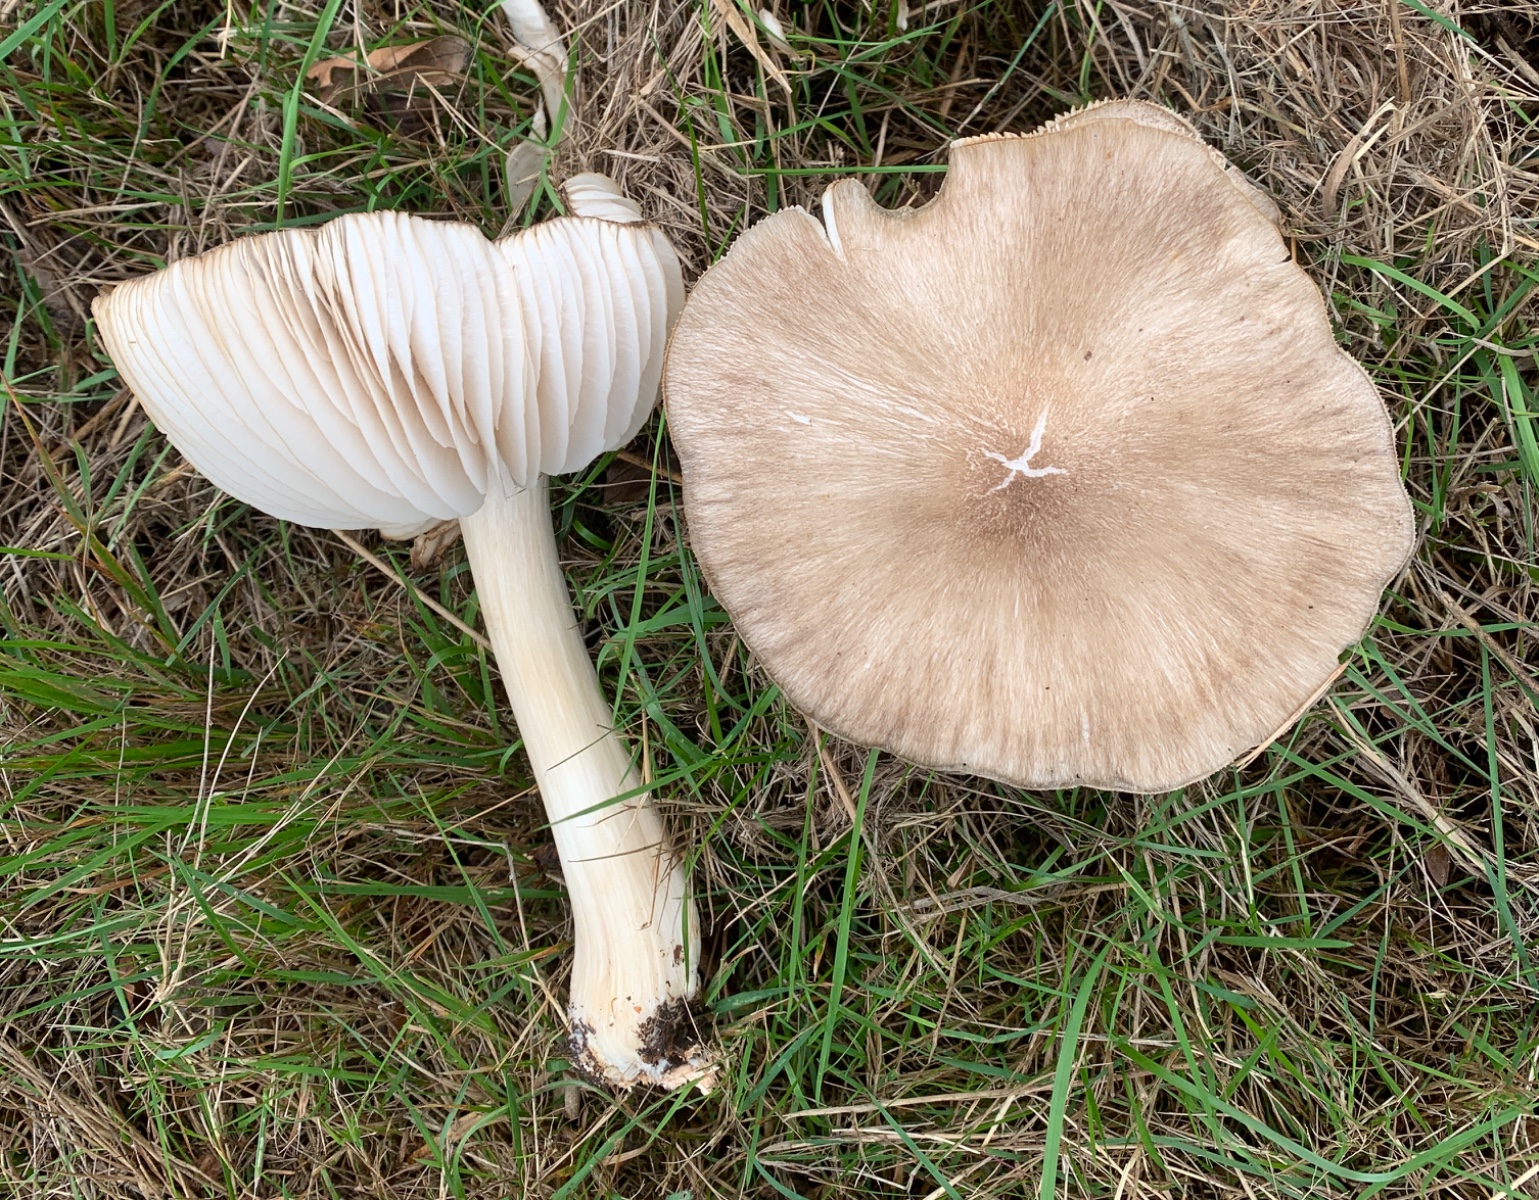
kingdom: Fungi
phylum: Basidiomycota
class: Agaricomycetes
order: Agaricales
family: Tricholomataceae
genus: Megacollybia
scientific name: Megacollybia platyphylla
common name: bredbladet væbnerhat
